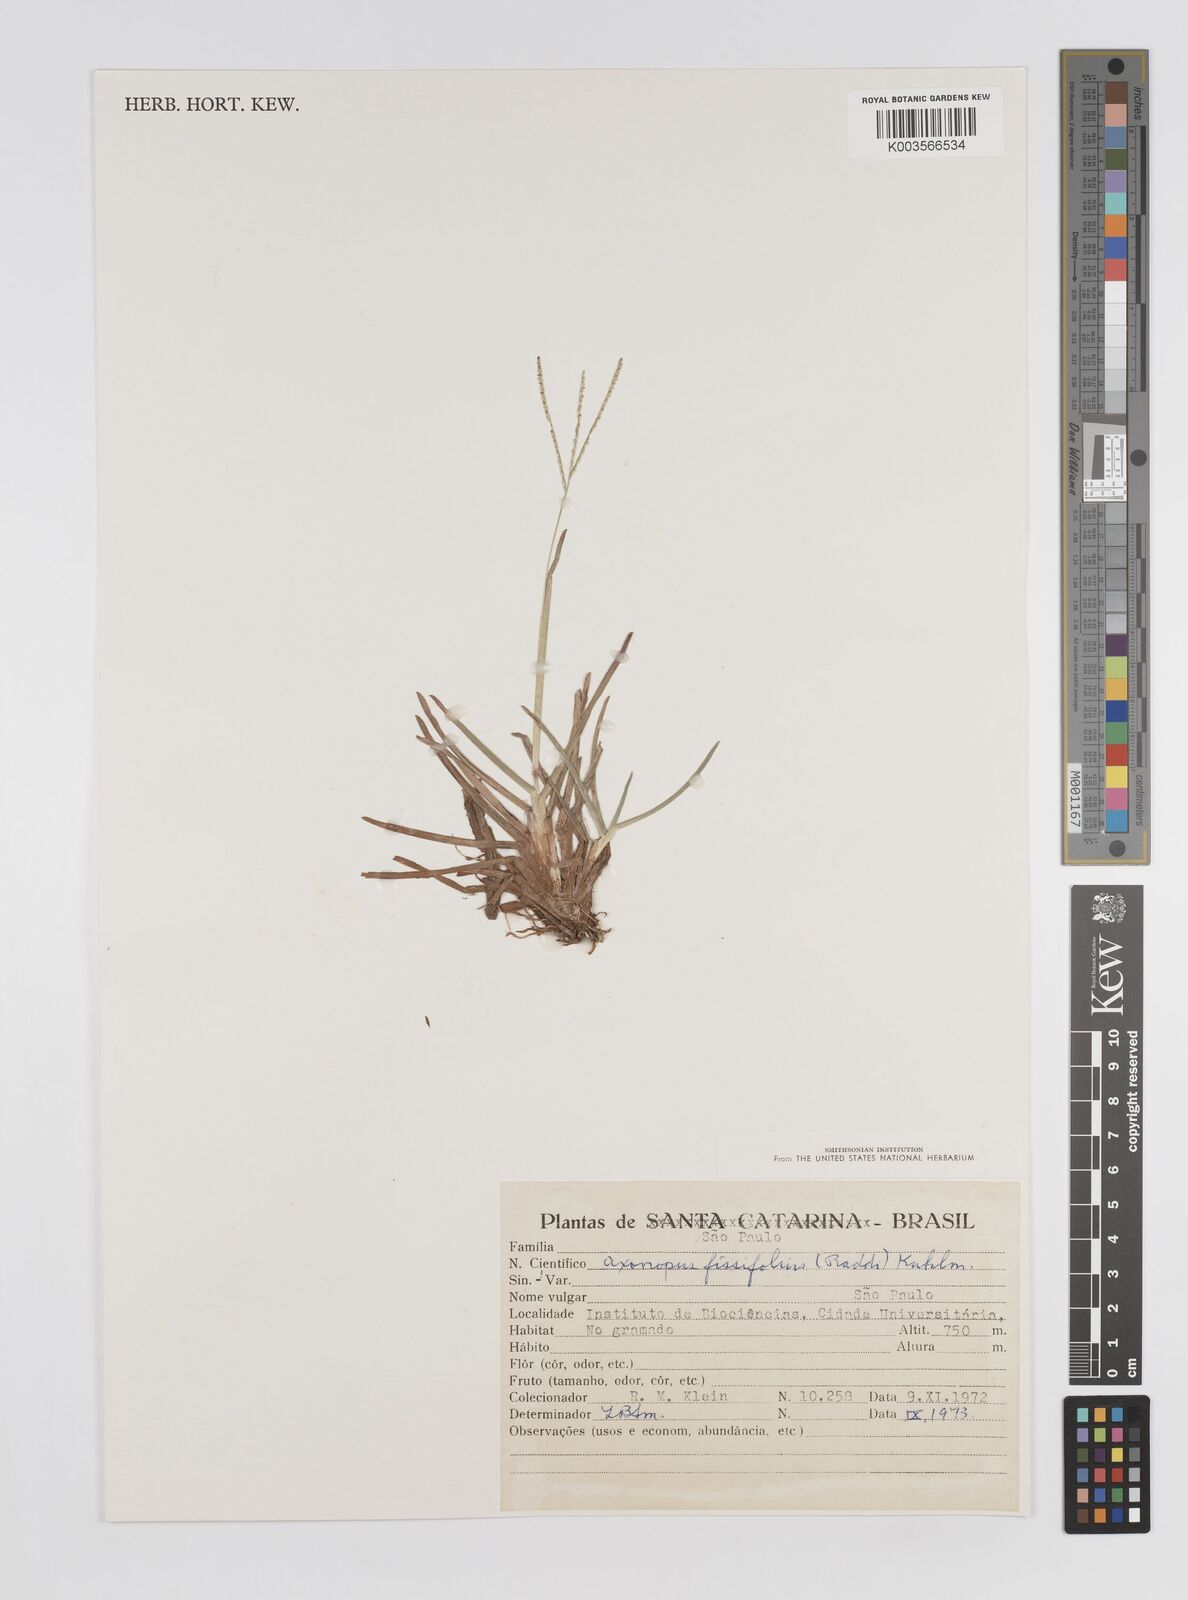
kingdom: Plantae
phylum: Tracheophyta
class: Liliopsida
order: Poales
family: Poaceae
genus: Axonopus
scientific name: Axonopus fissifolius
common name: Common carpetgrass
